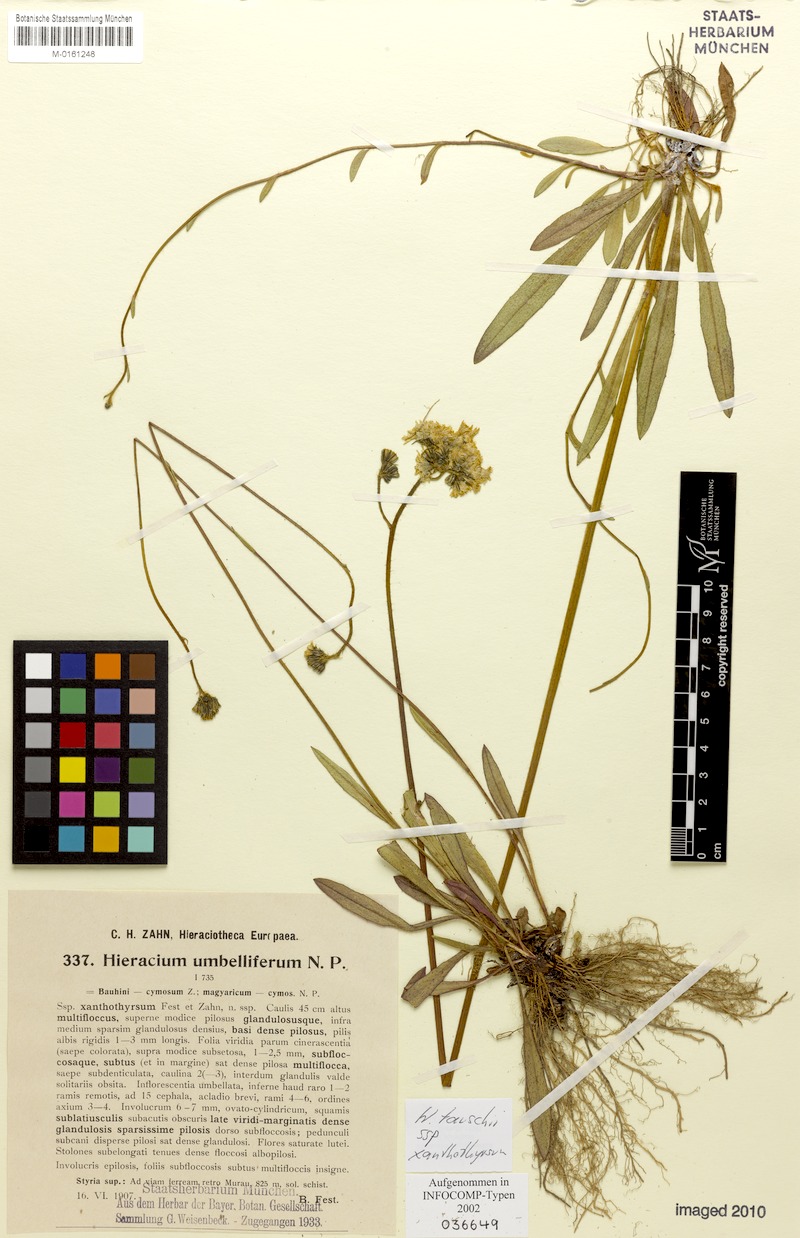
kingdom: Plantae
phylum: Tracheophyta
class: Magnoliopsida
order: Asterales
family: Asteraceae
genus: Pilosella
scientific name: Pilosella densiflora
